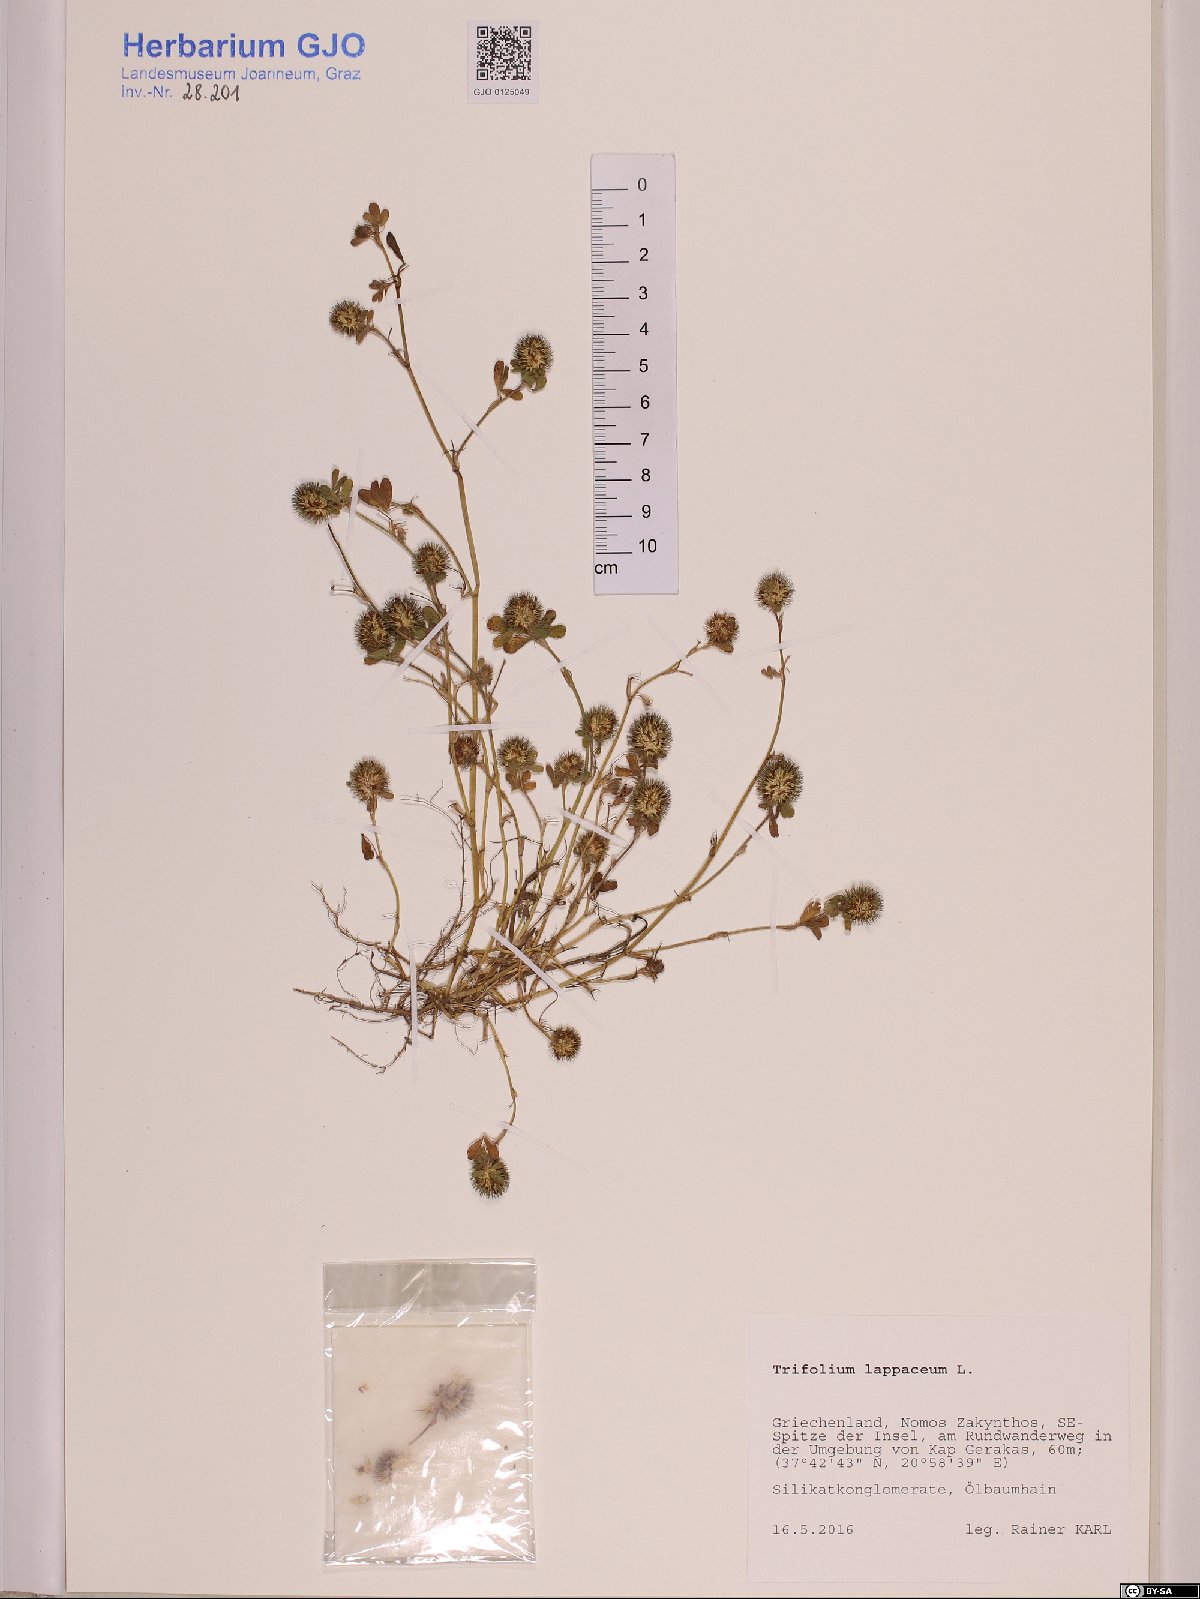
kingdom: Plantae
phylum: Tracheophyta
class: Magnoliopsida
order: Fabales
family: Fabaceae
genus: Trifolium
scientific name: Trifolium lappaceum
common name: Bur clover
